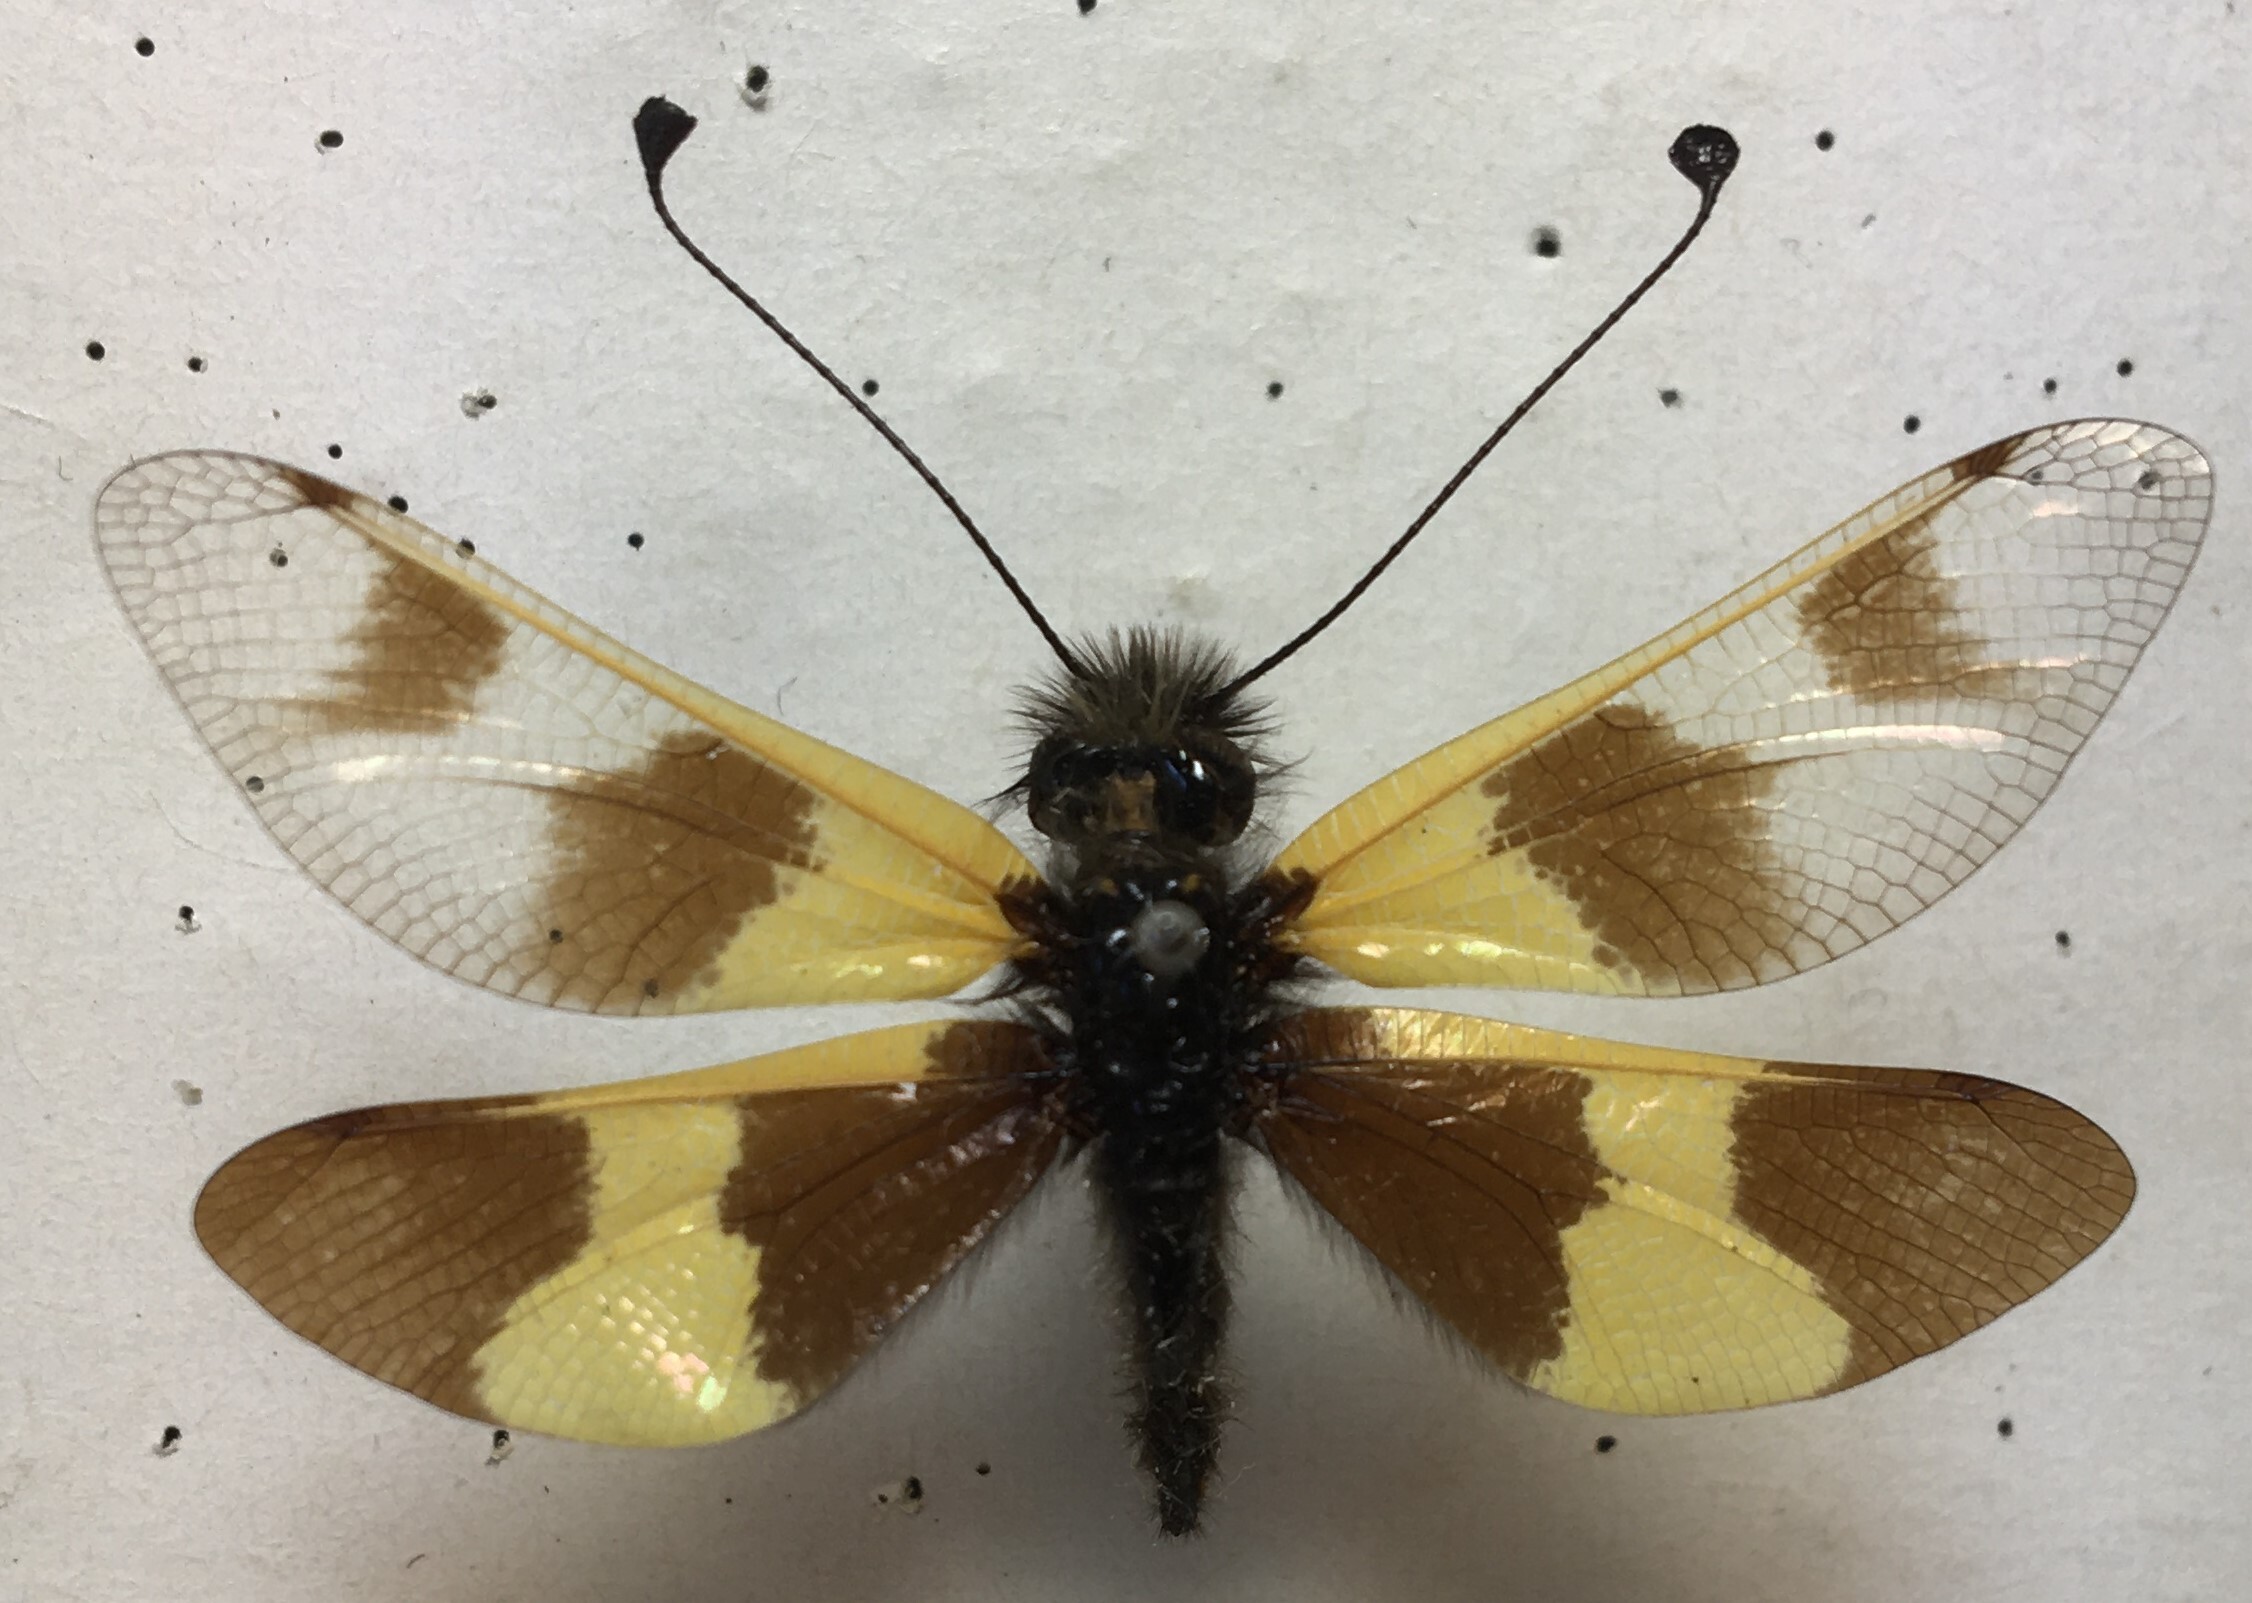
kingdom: Animalia
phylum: Arthropoda
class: Insecta
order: Neuroptera
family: Ascalaphidae
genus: Libelloides
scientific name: Libelloides macaronius
